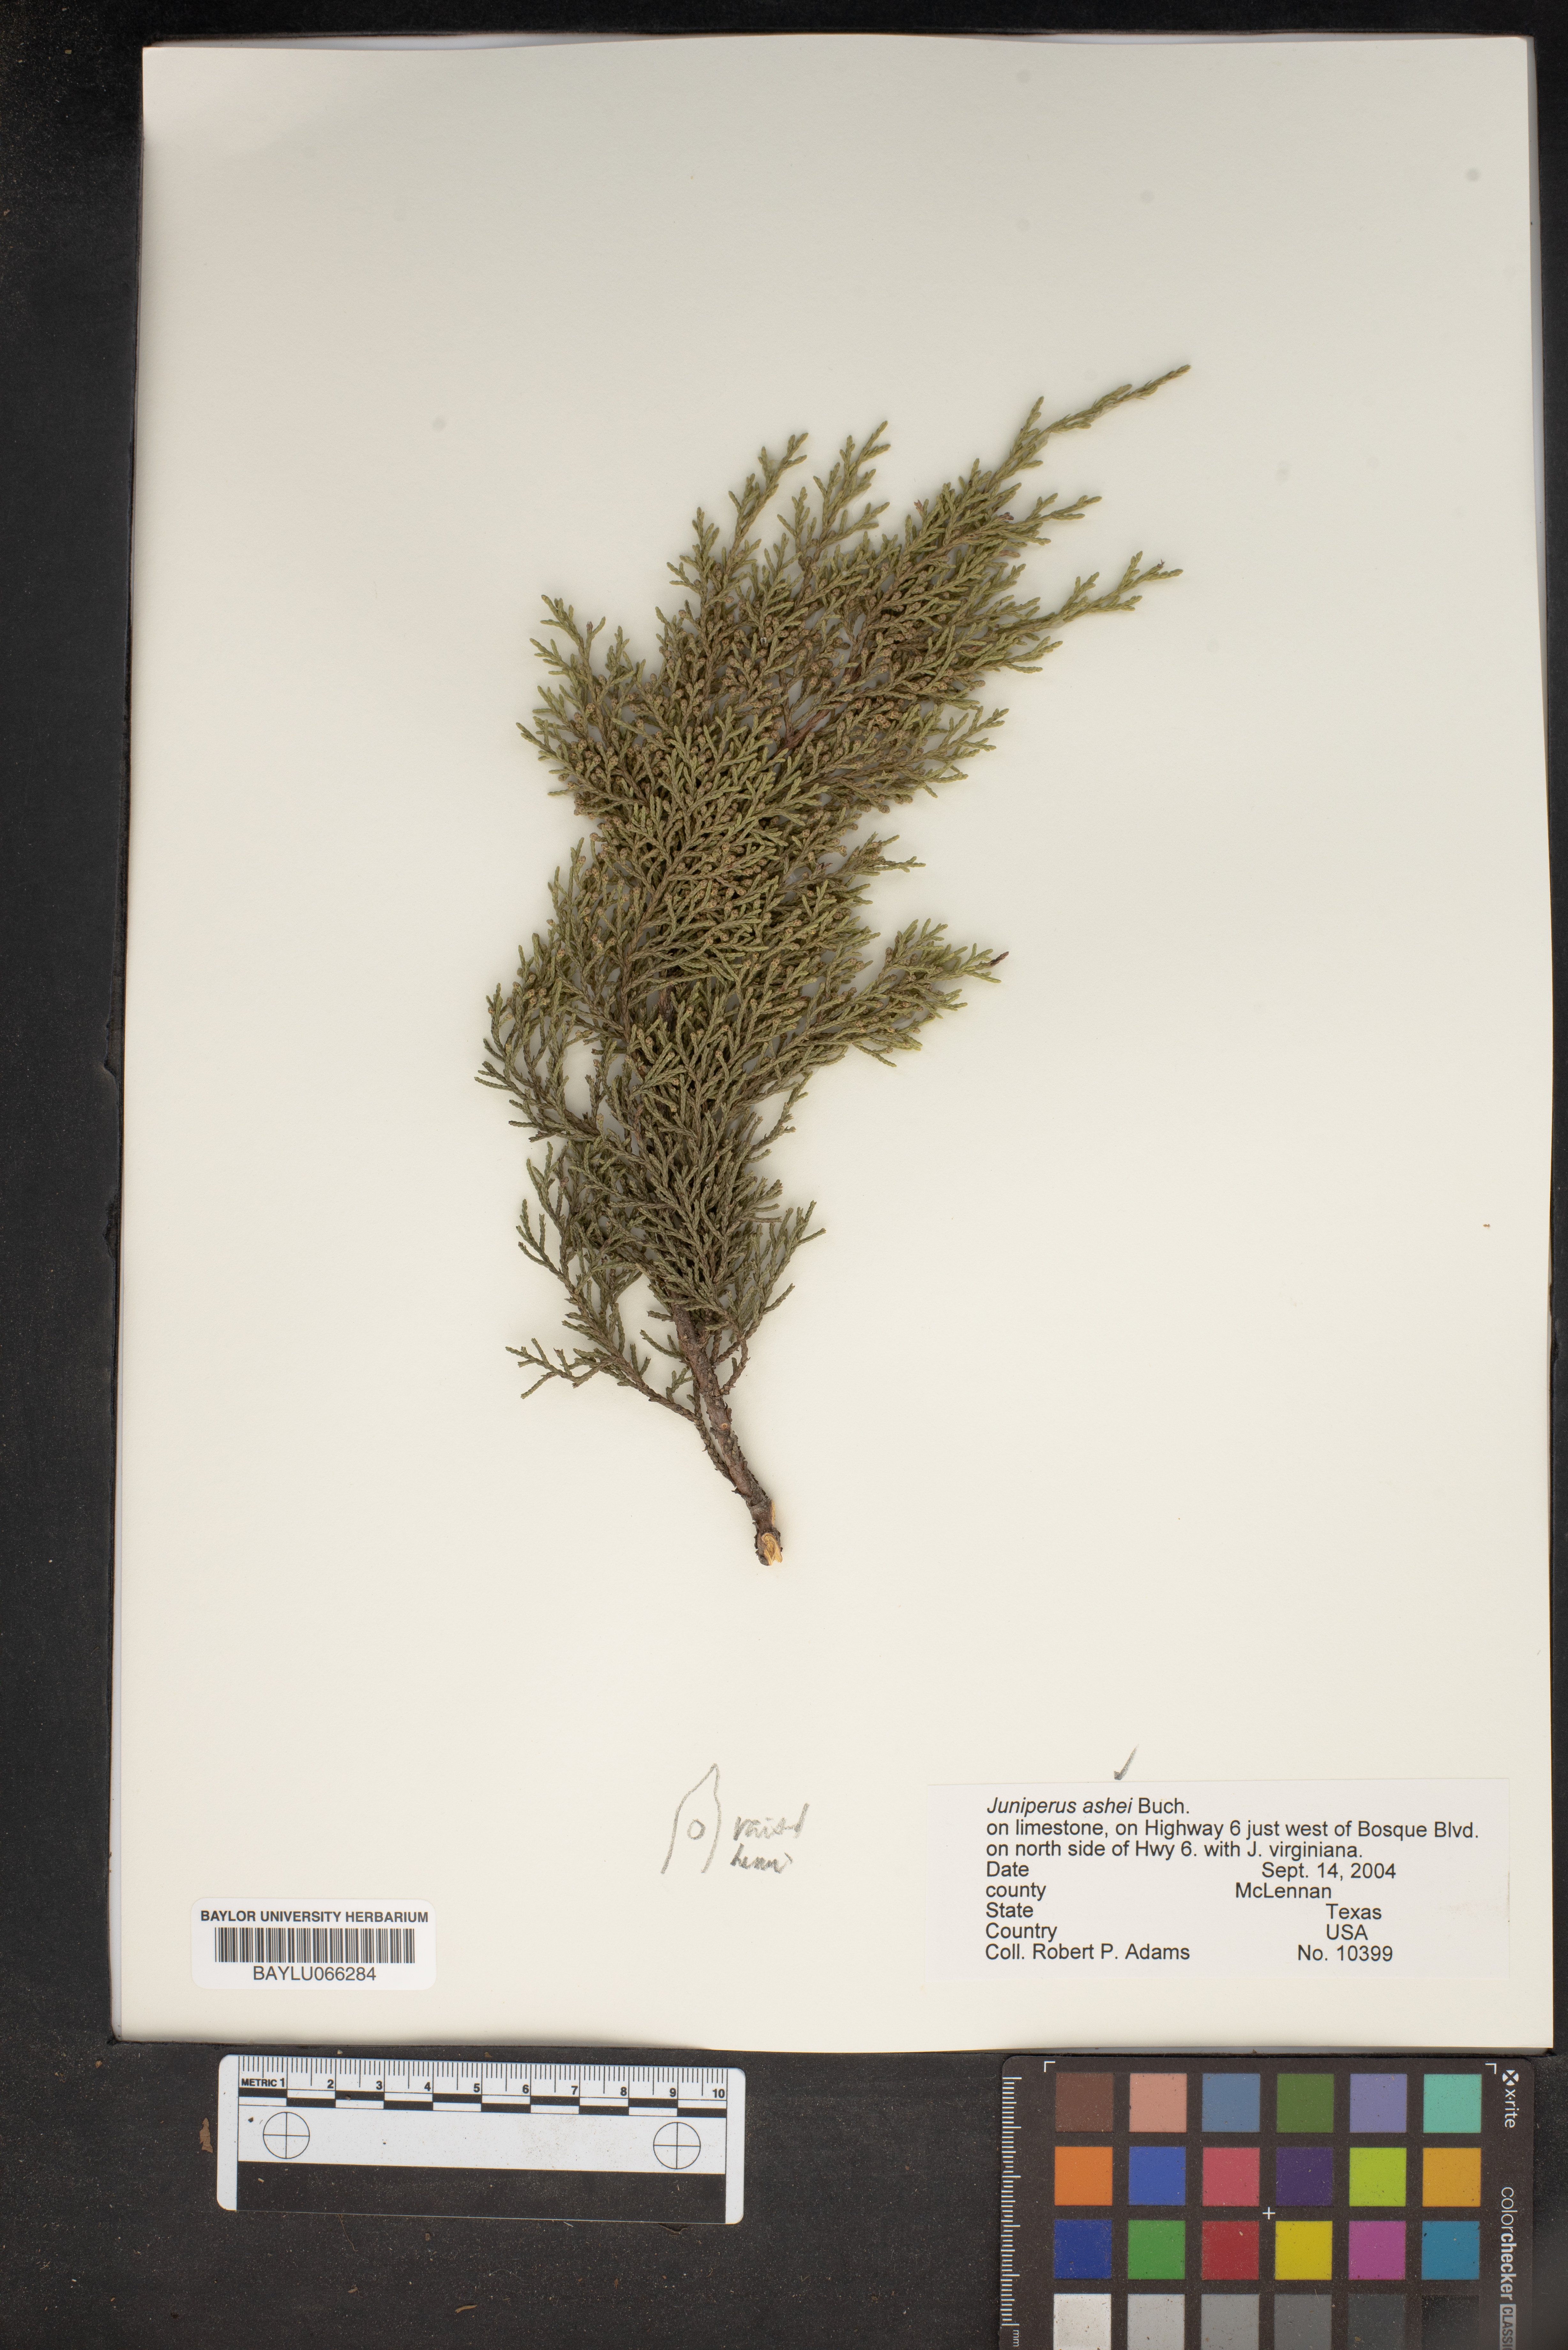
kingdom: Plantae
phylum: Tracheophyta
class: Pinopsida
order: Pinales
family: Cupressaceae
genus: Juniperus
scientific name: Juniperus ashei
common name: Mexican juniper
